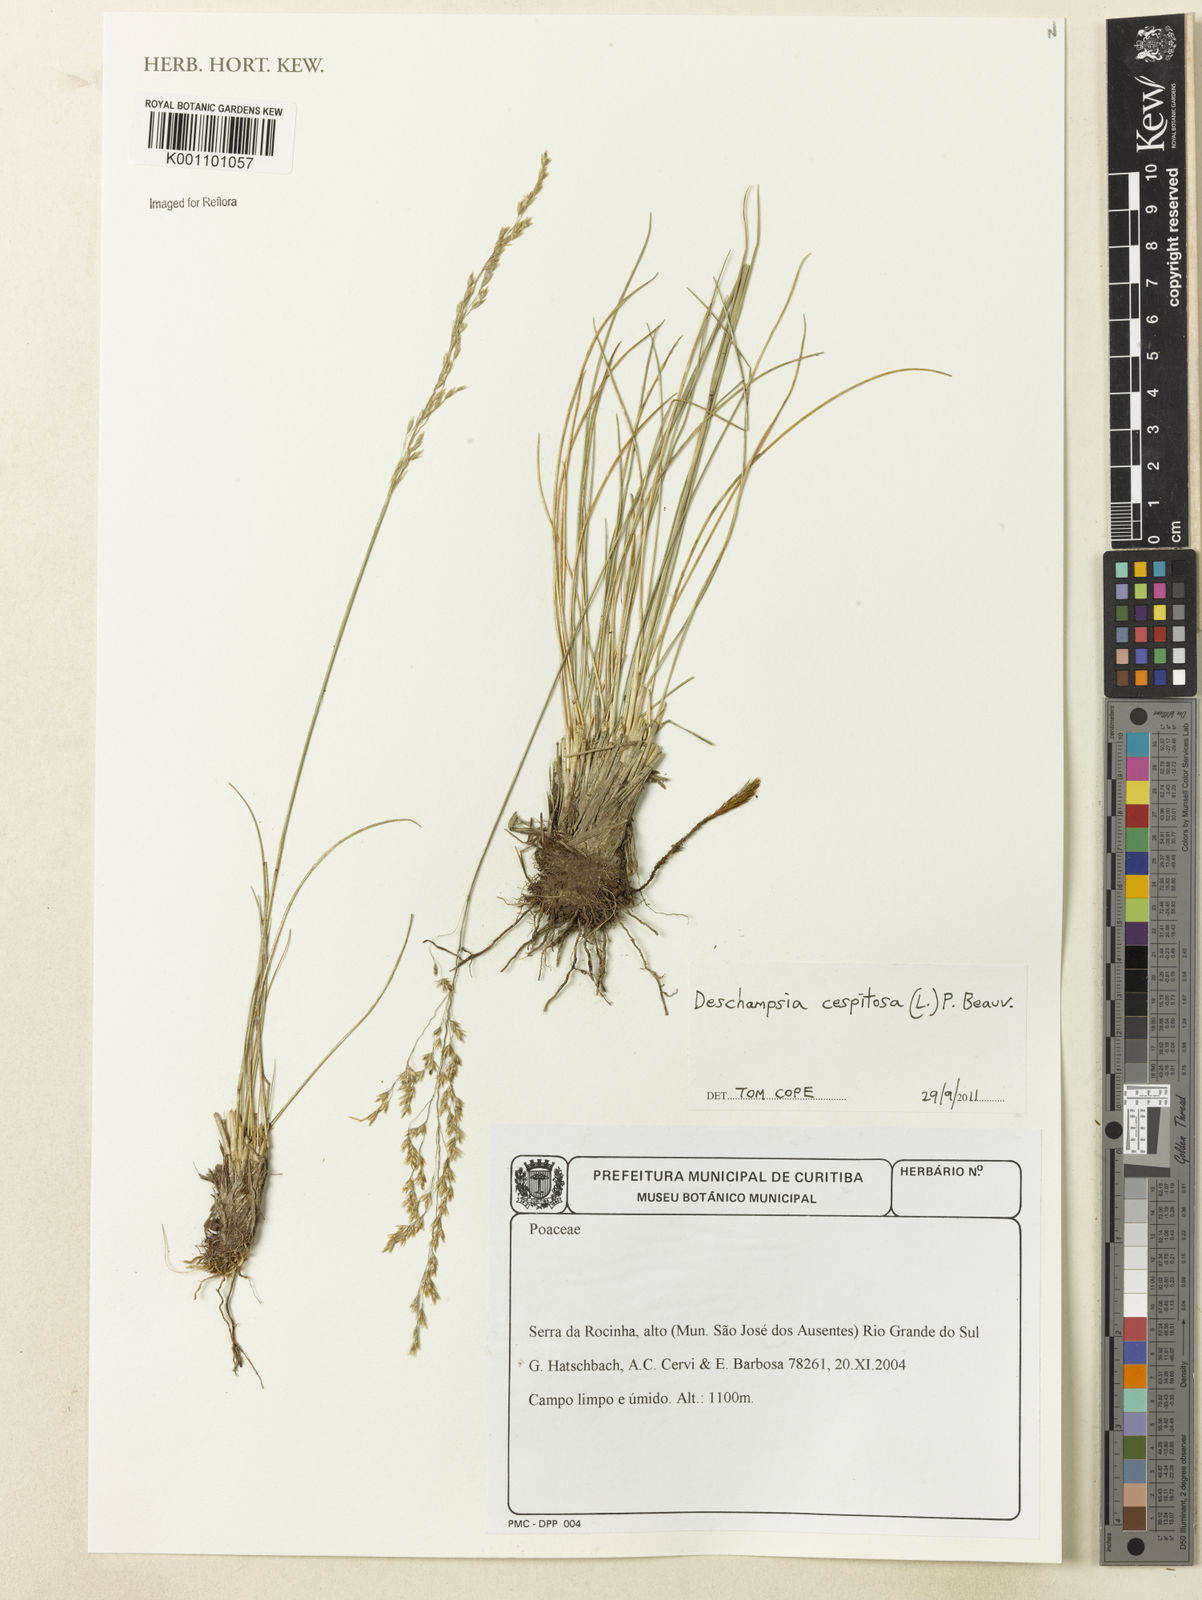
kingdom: Plantae
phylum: Tracheophyta
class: Liliopsida
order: Poales
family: Poaceae
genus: Deschampsia
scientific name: Deschampsia
